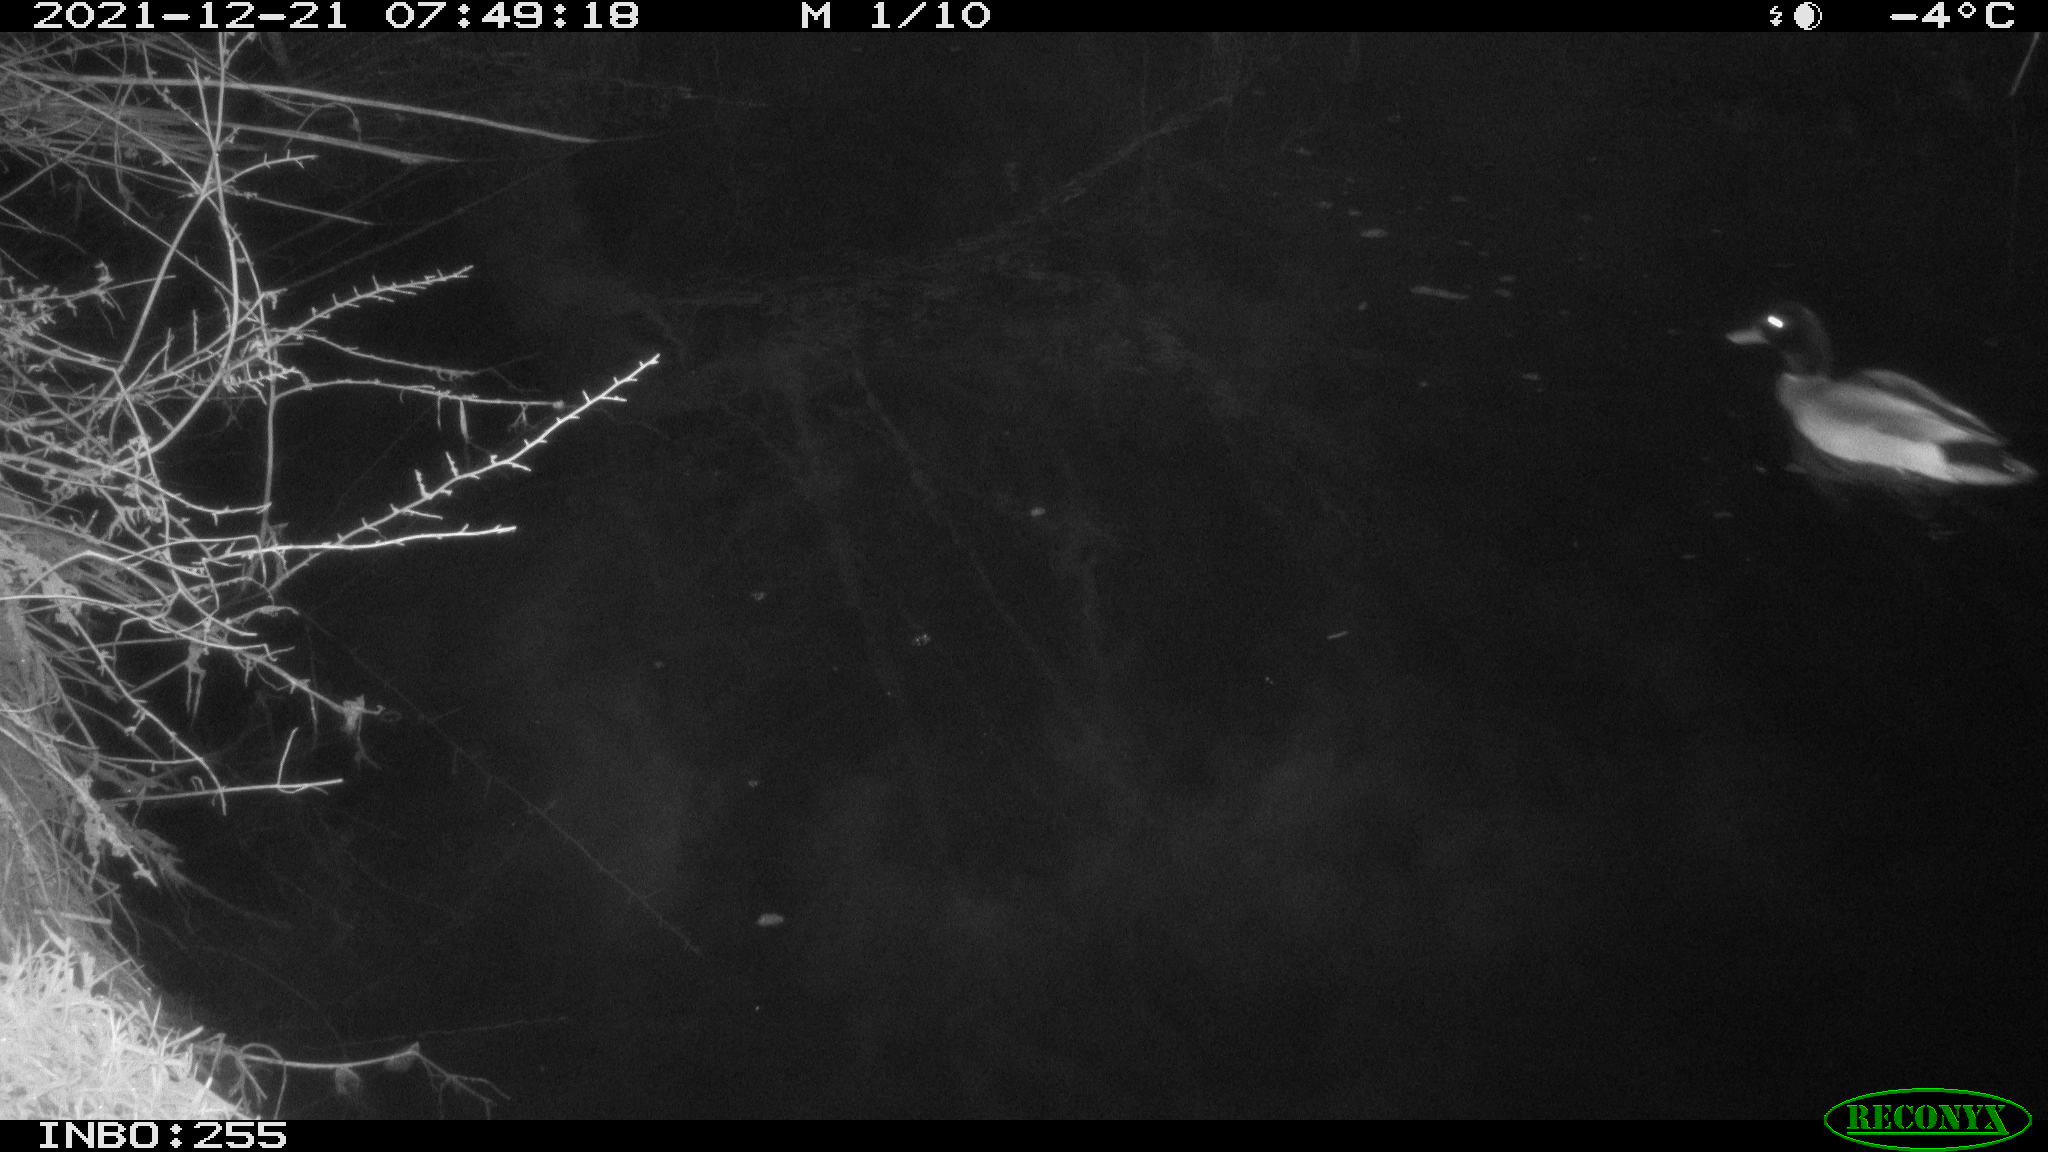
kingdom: Animalia
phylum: Chordata
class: Aves
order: Anseriformes
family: Anatidae
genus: Anas
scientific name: Anas
